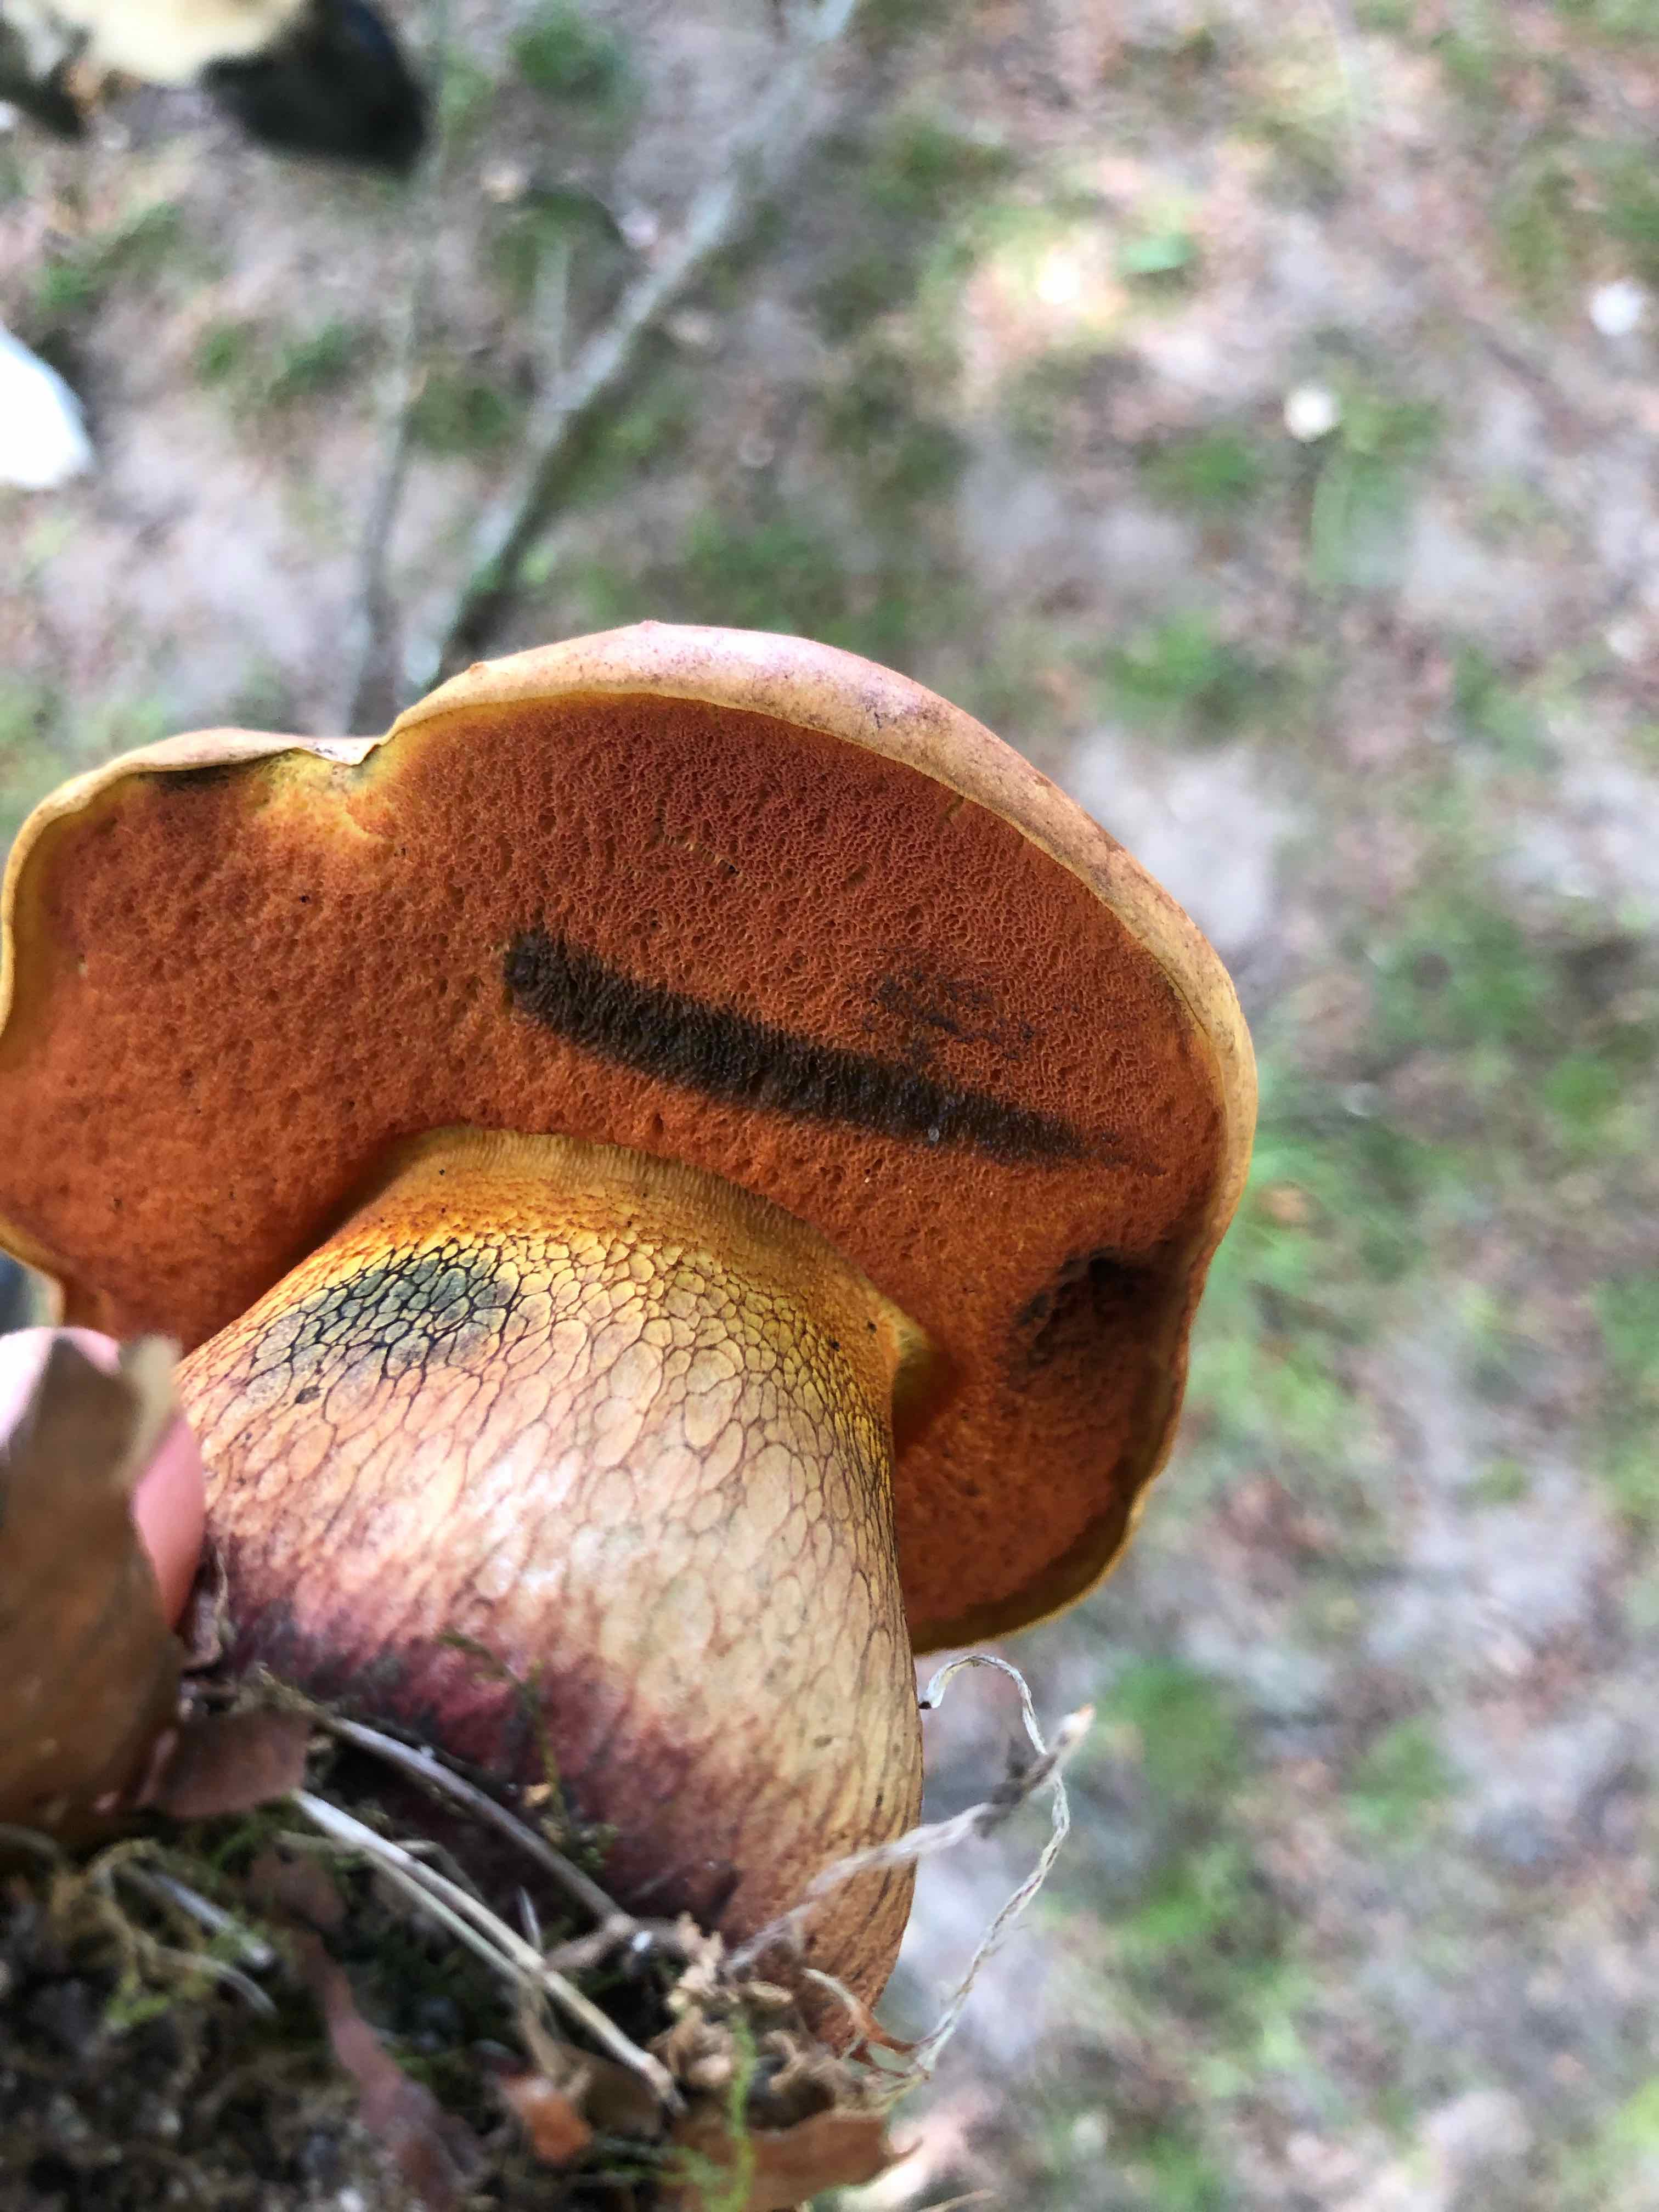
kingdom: Fungi
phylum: Basidiomycota
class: Agaricomycetes
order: Boletales
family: Boletaceae
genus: Suillellus
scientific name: Suillellus luridus
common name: netstokket indigorørhat
